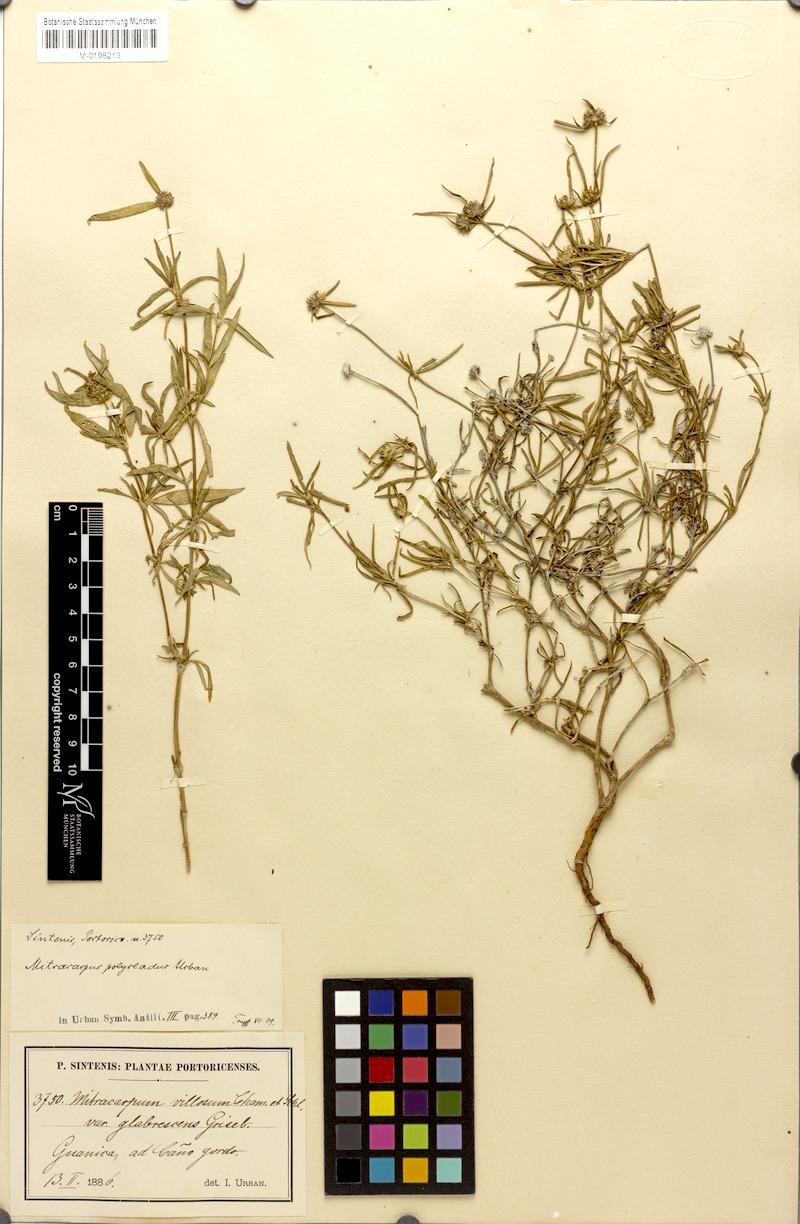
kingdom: Plantae
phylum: Tracheophyta
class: Magnoliopsida
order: Gentianales
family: Rubiaceae
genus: Mitracarpus
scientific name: Mitracarpus polycladus
